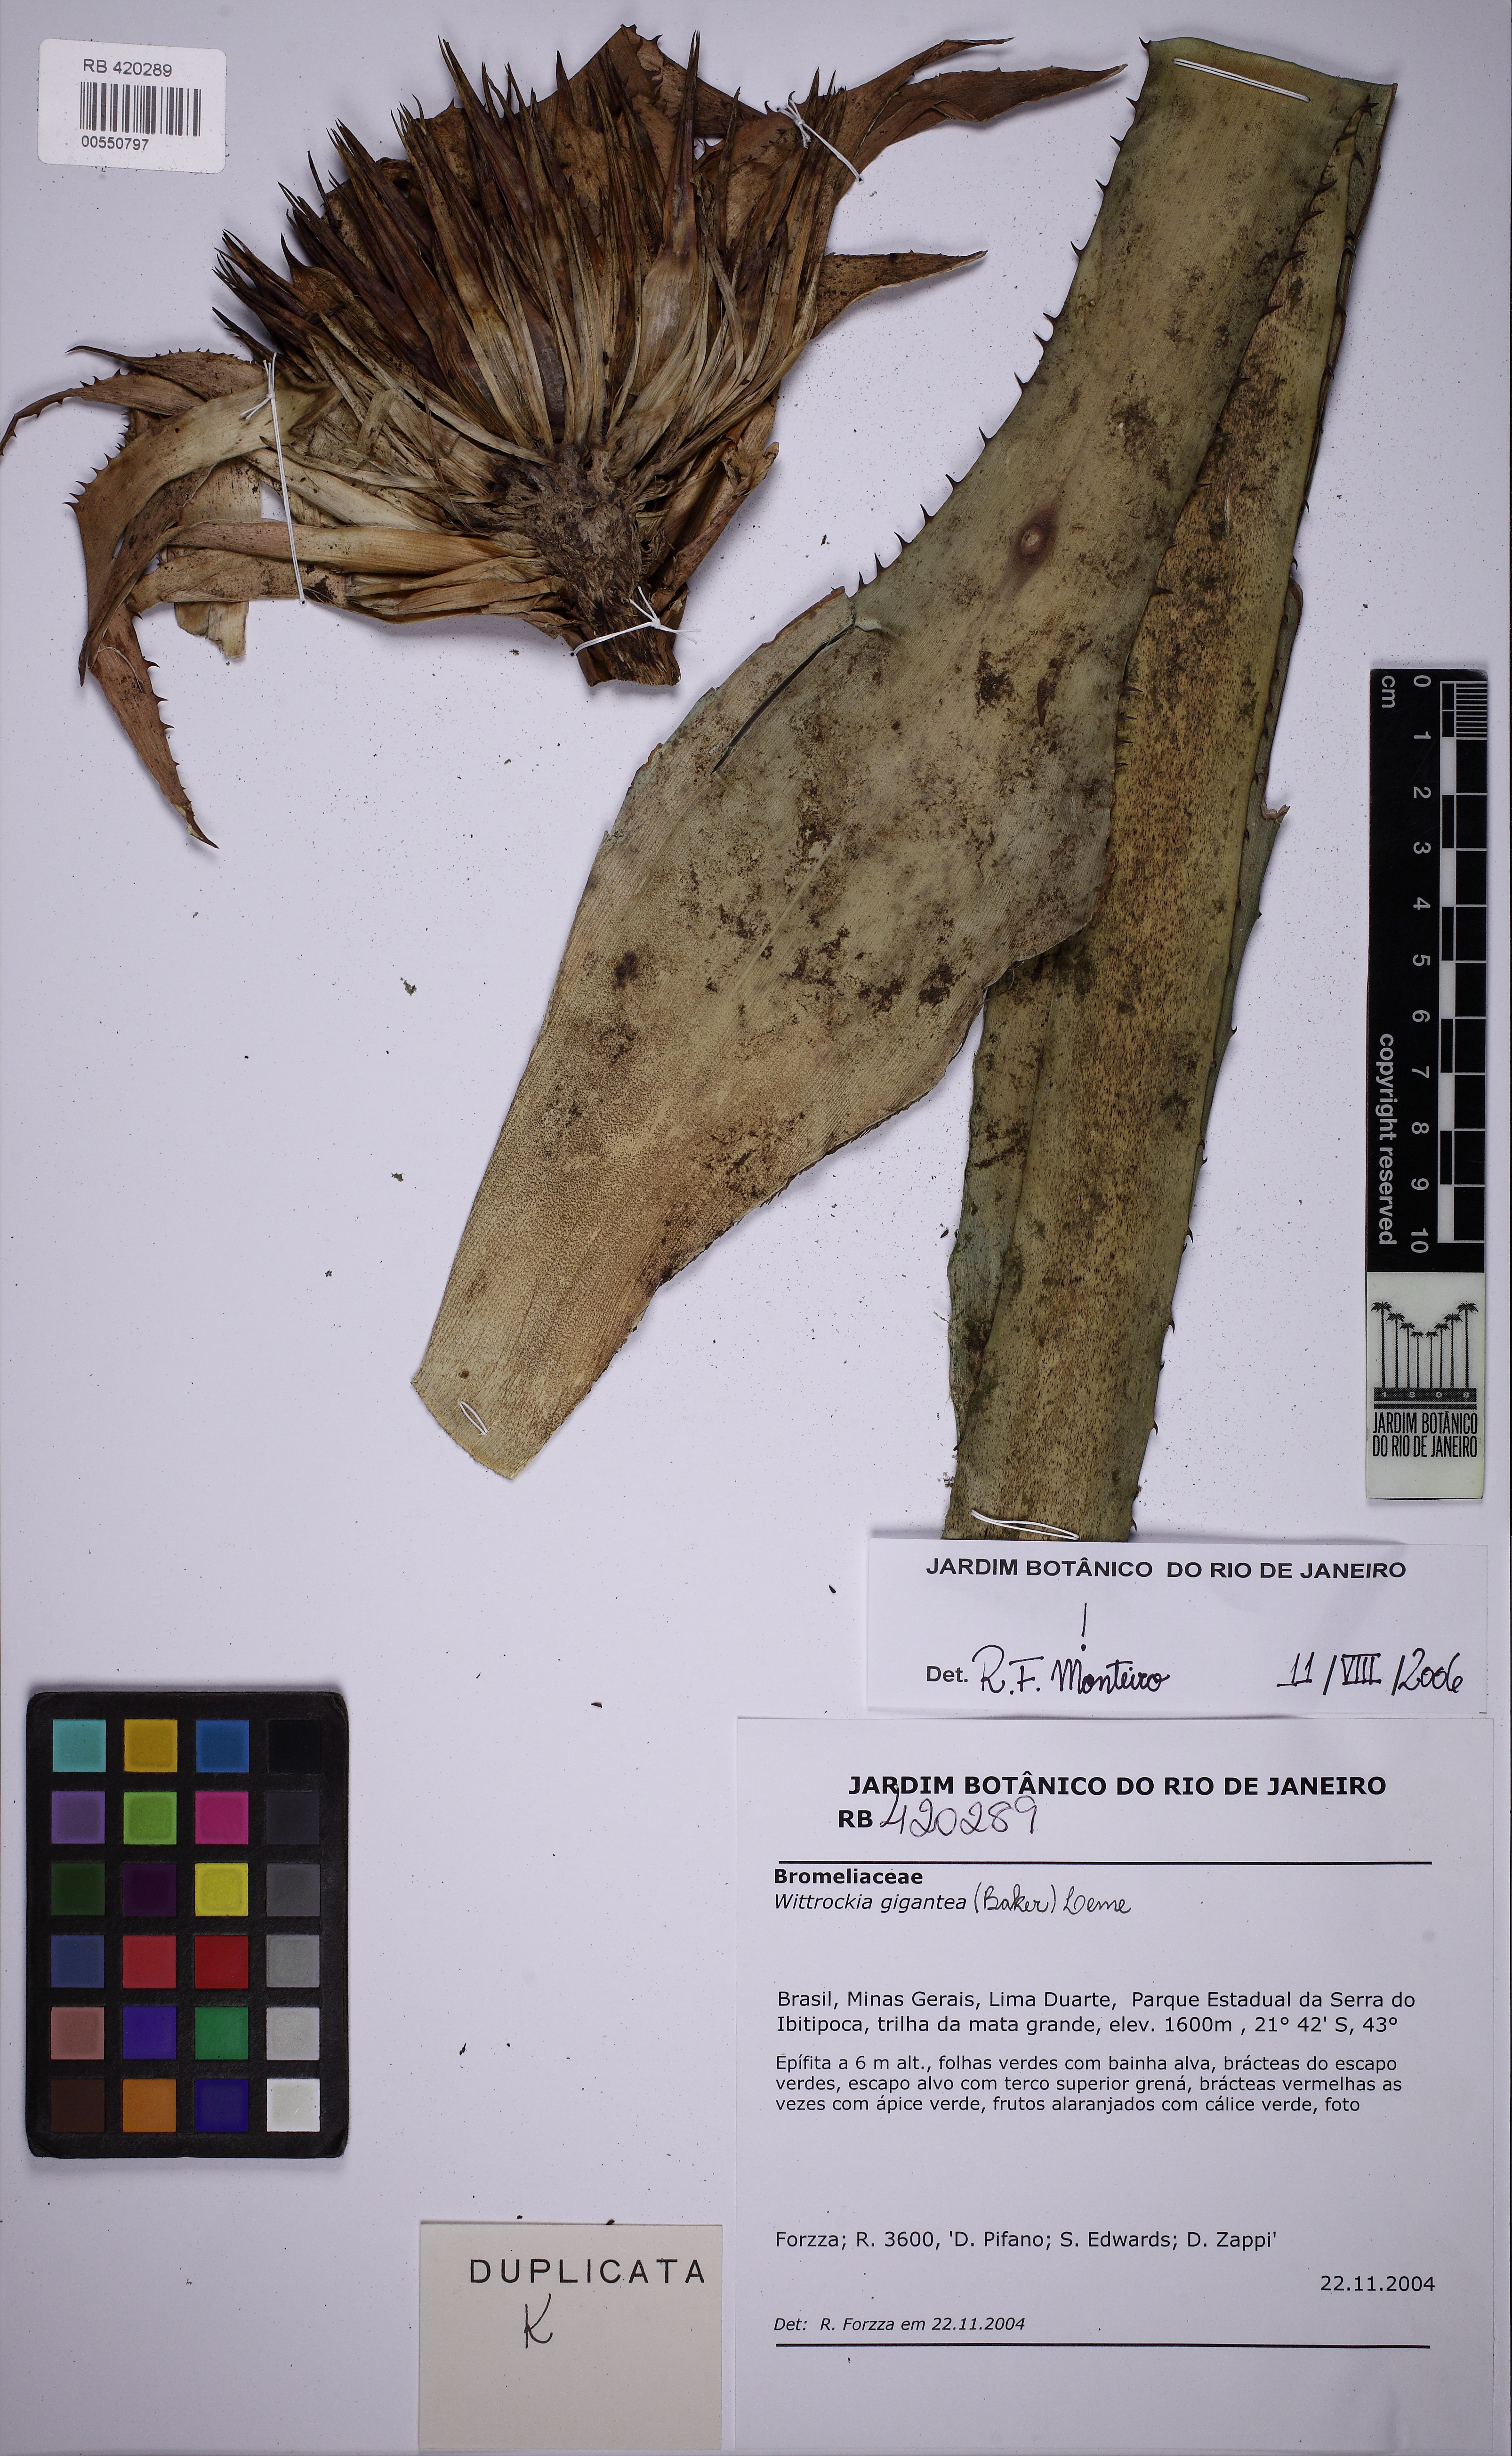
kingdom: Plantae
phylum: Tracheophyta
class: Liliopsida
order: Poales
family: Bromeliaceae
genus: Wittrockia
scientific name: Wittrockia gigantea
